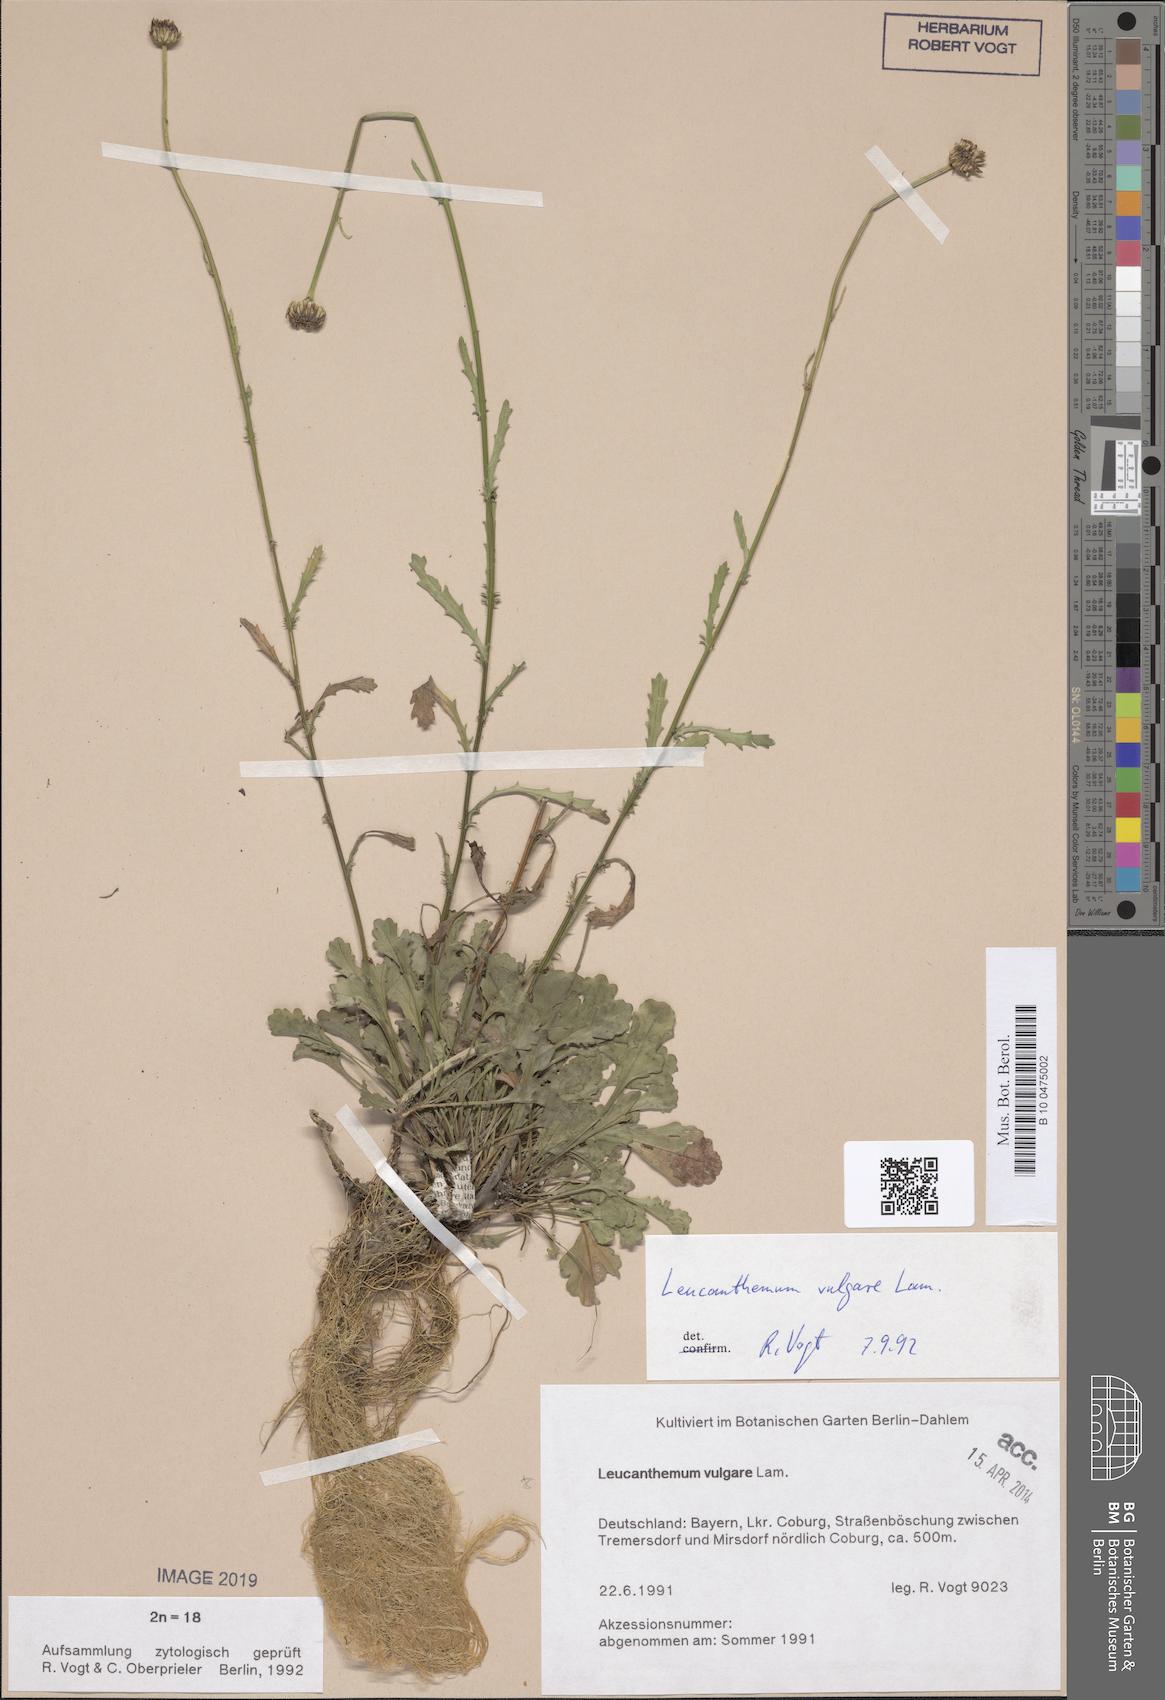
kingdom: Plantae
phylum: Tracheophyta
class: Magnoliopsida
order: Asterales
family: Asteraceae
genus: Leucanthemum
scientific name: Leucanthemum vulgare
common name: Oxeye daisy
